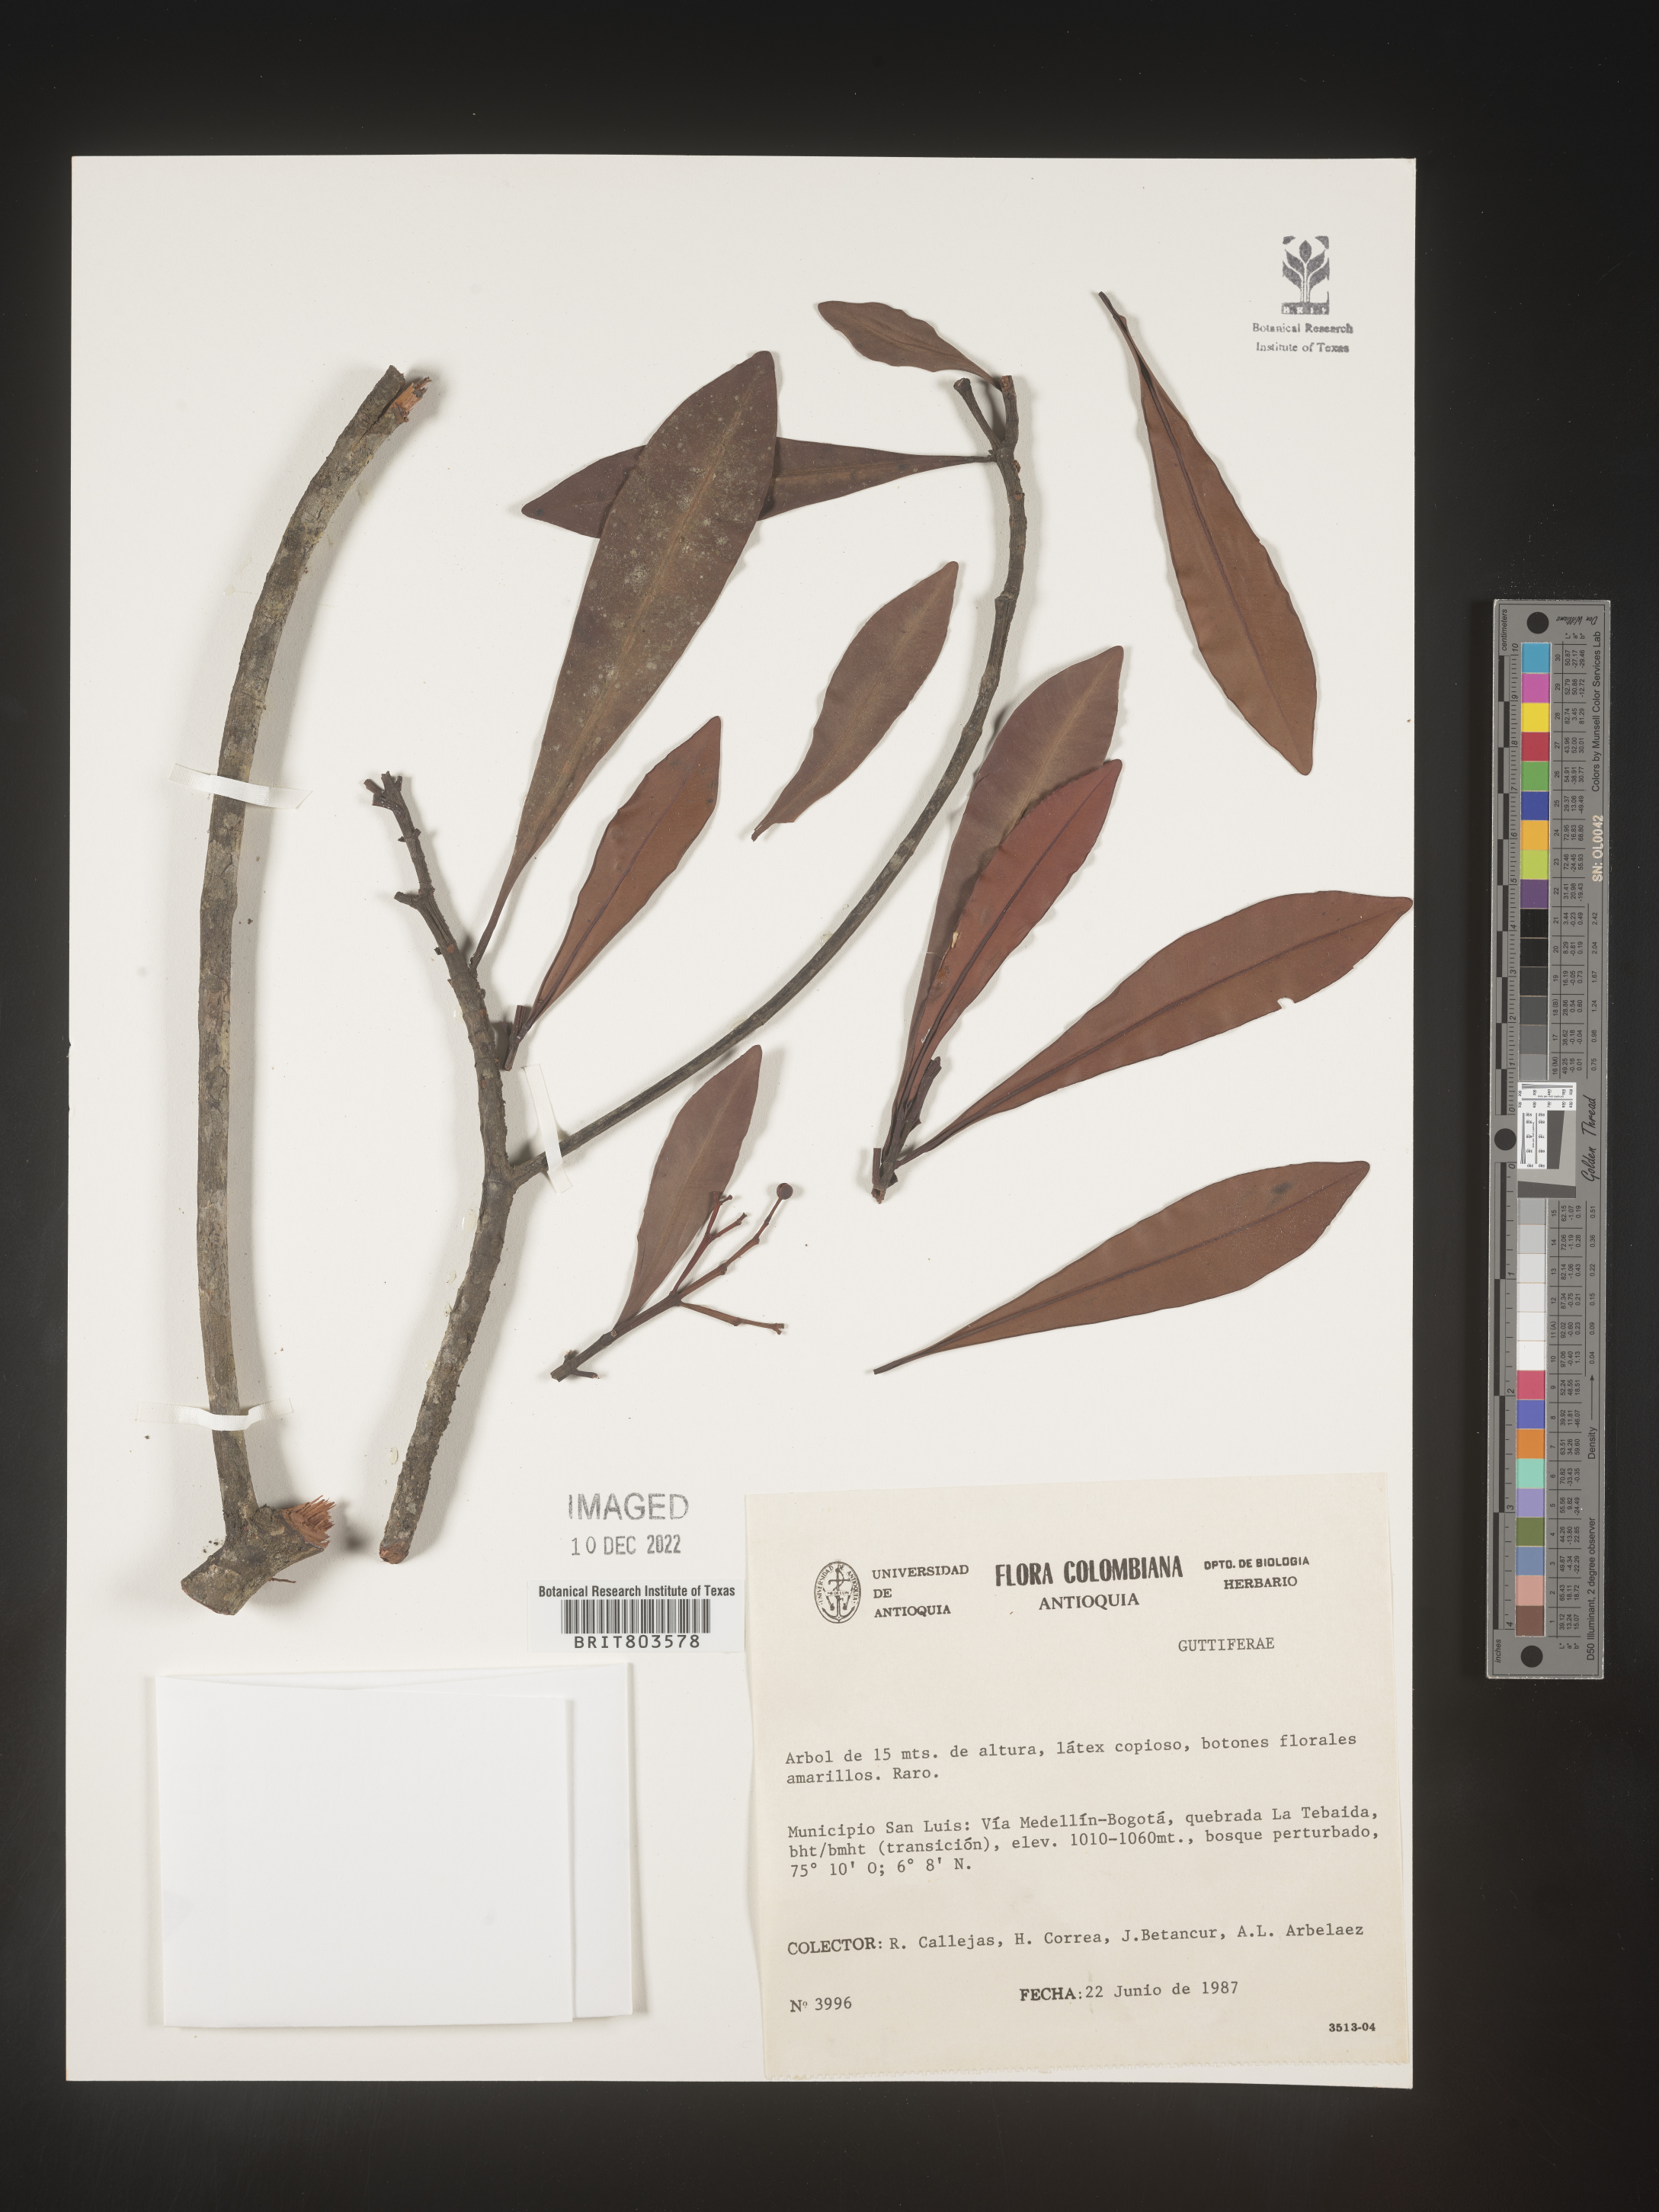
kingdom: Plantae
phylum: Tracheophyta
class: Magnoliopsida
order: Malpighiales
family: Clusiaceae
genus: Tovomita
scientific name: Tovomita
